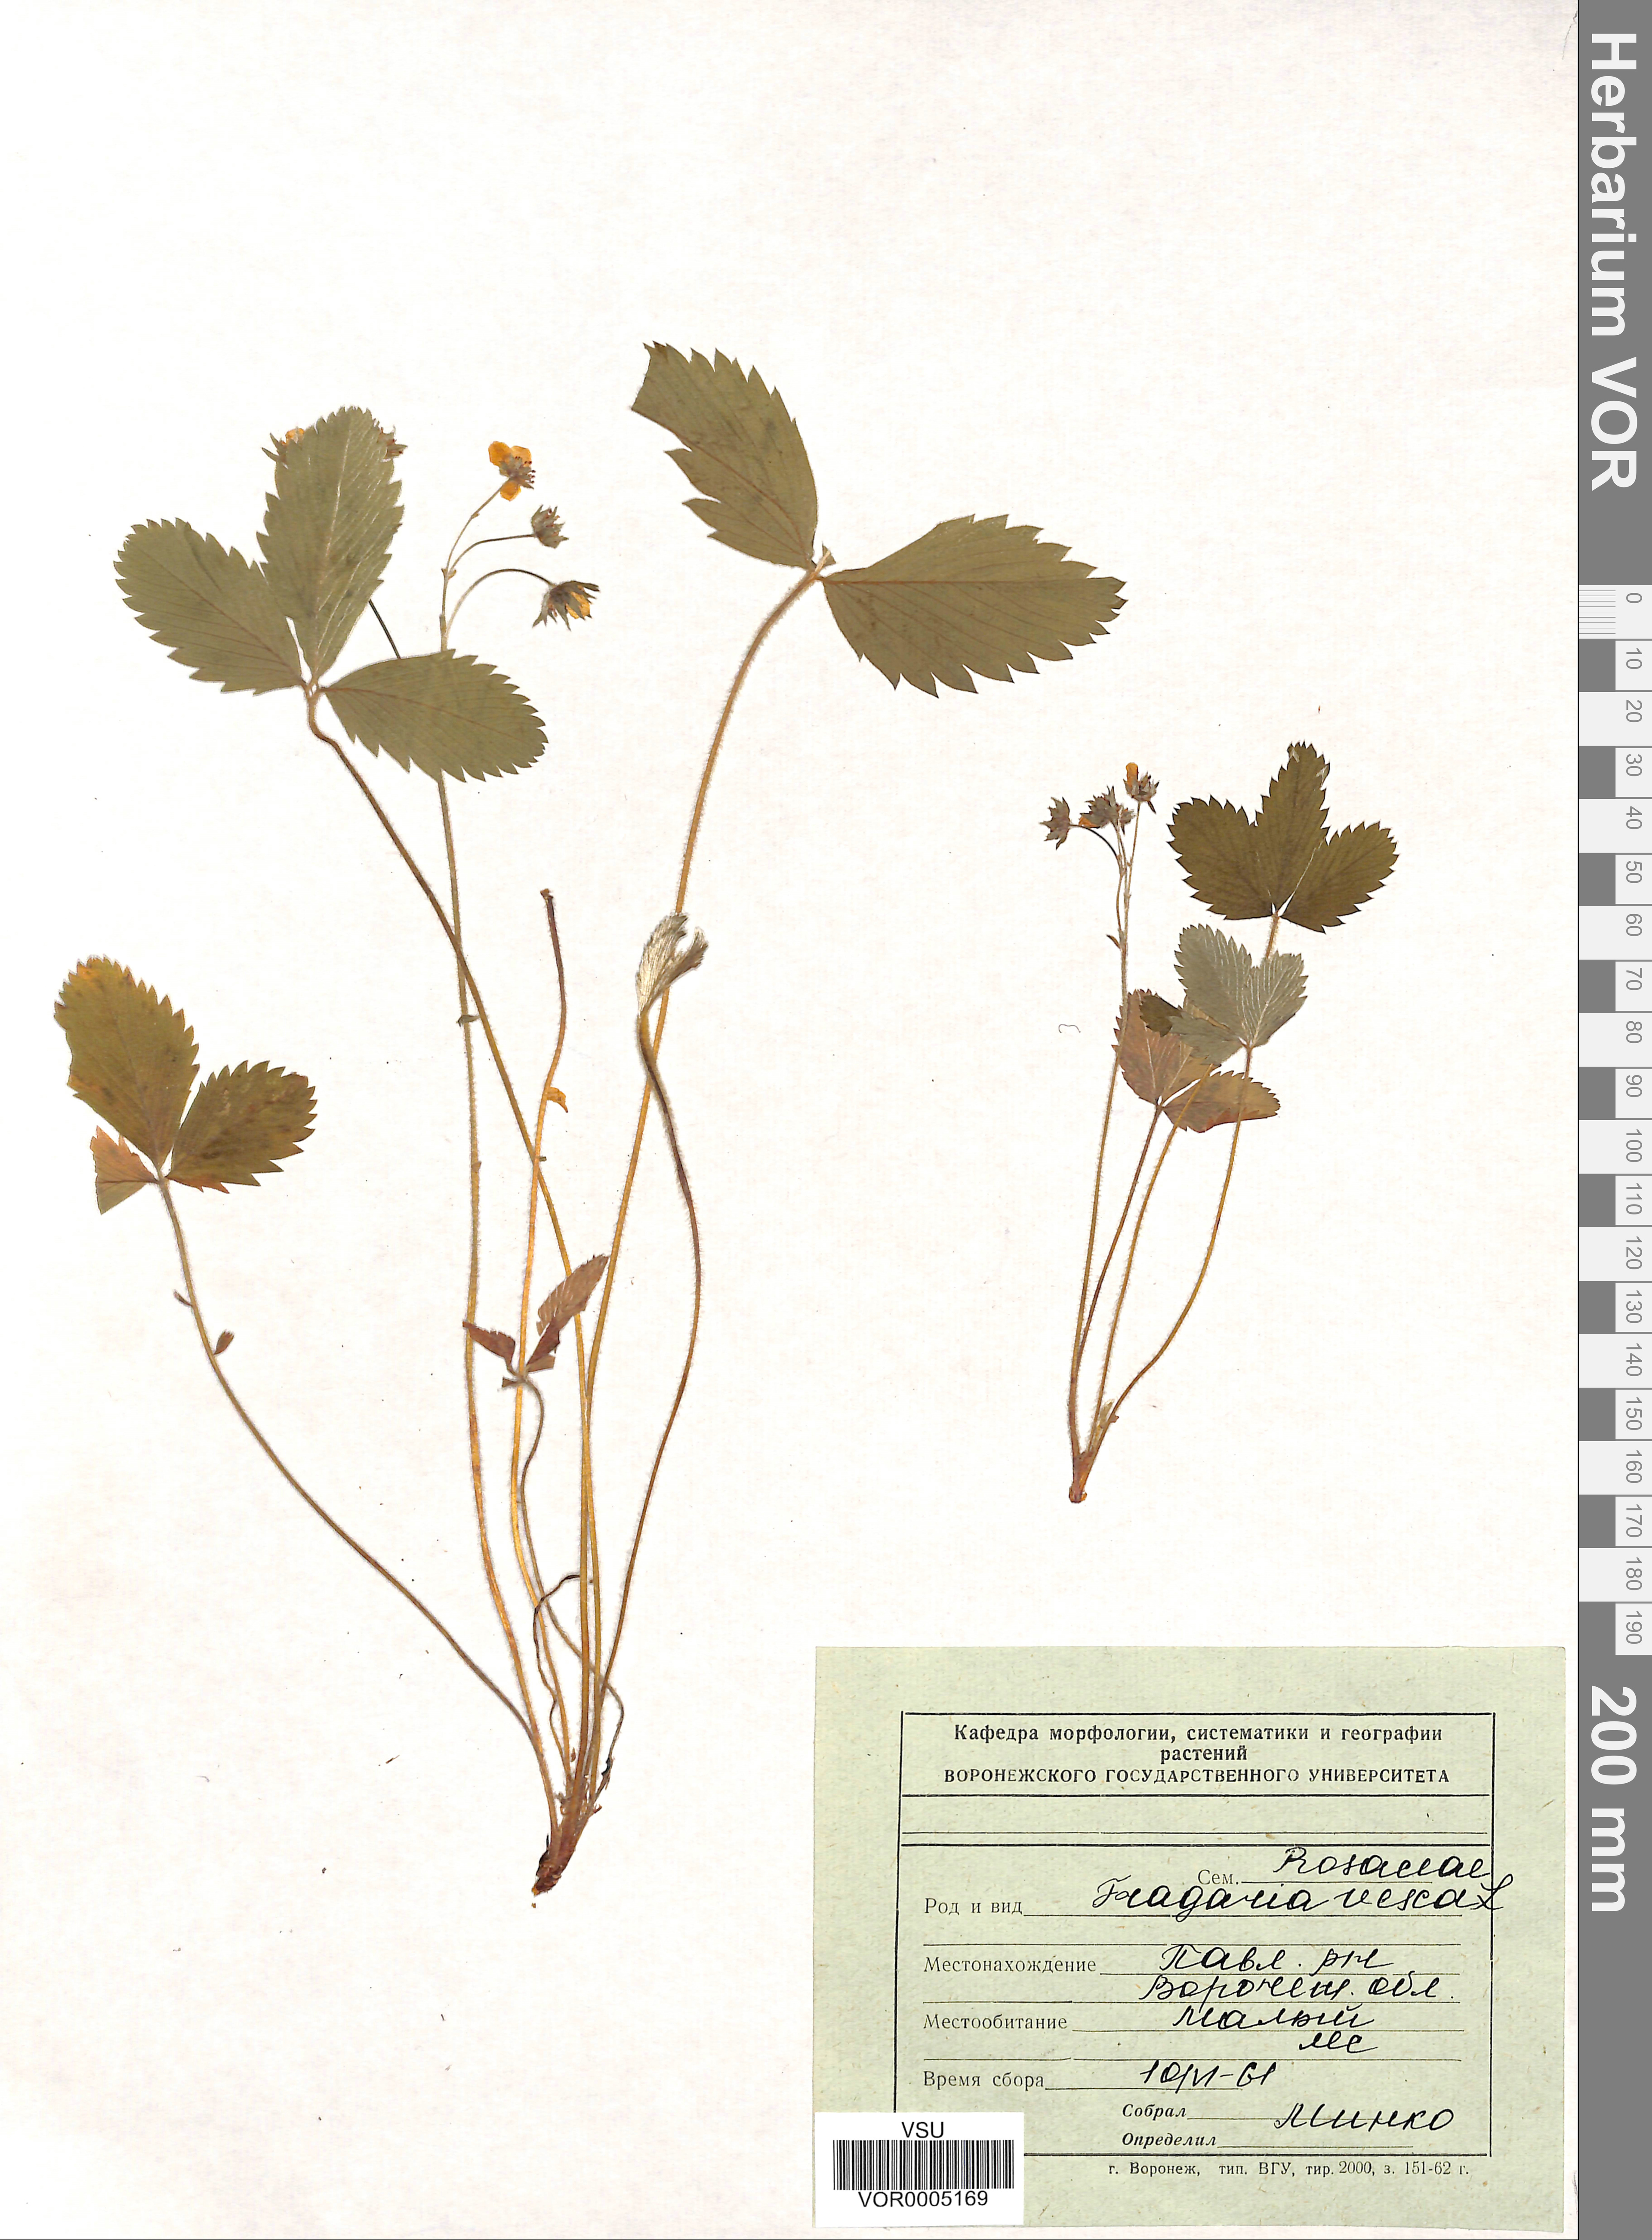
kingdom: Plantae
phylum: Tracheophyta
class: Magnoliopsida
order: Rosales
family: Rosaceae
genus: Fragaria
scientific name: Fragaria vesca
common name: Wild strawberry
